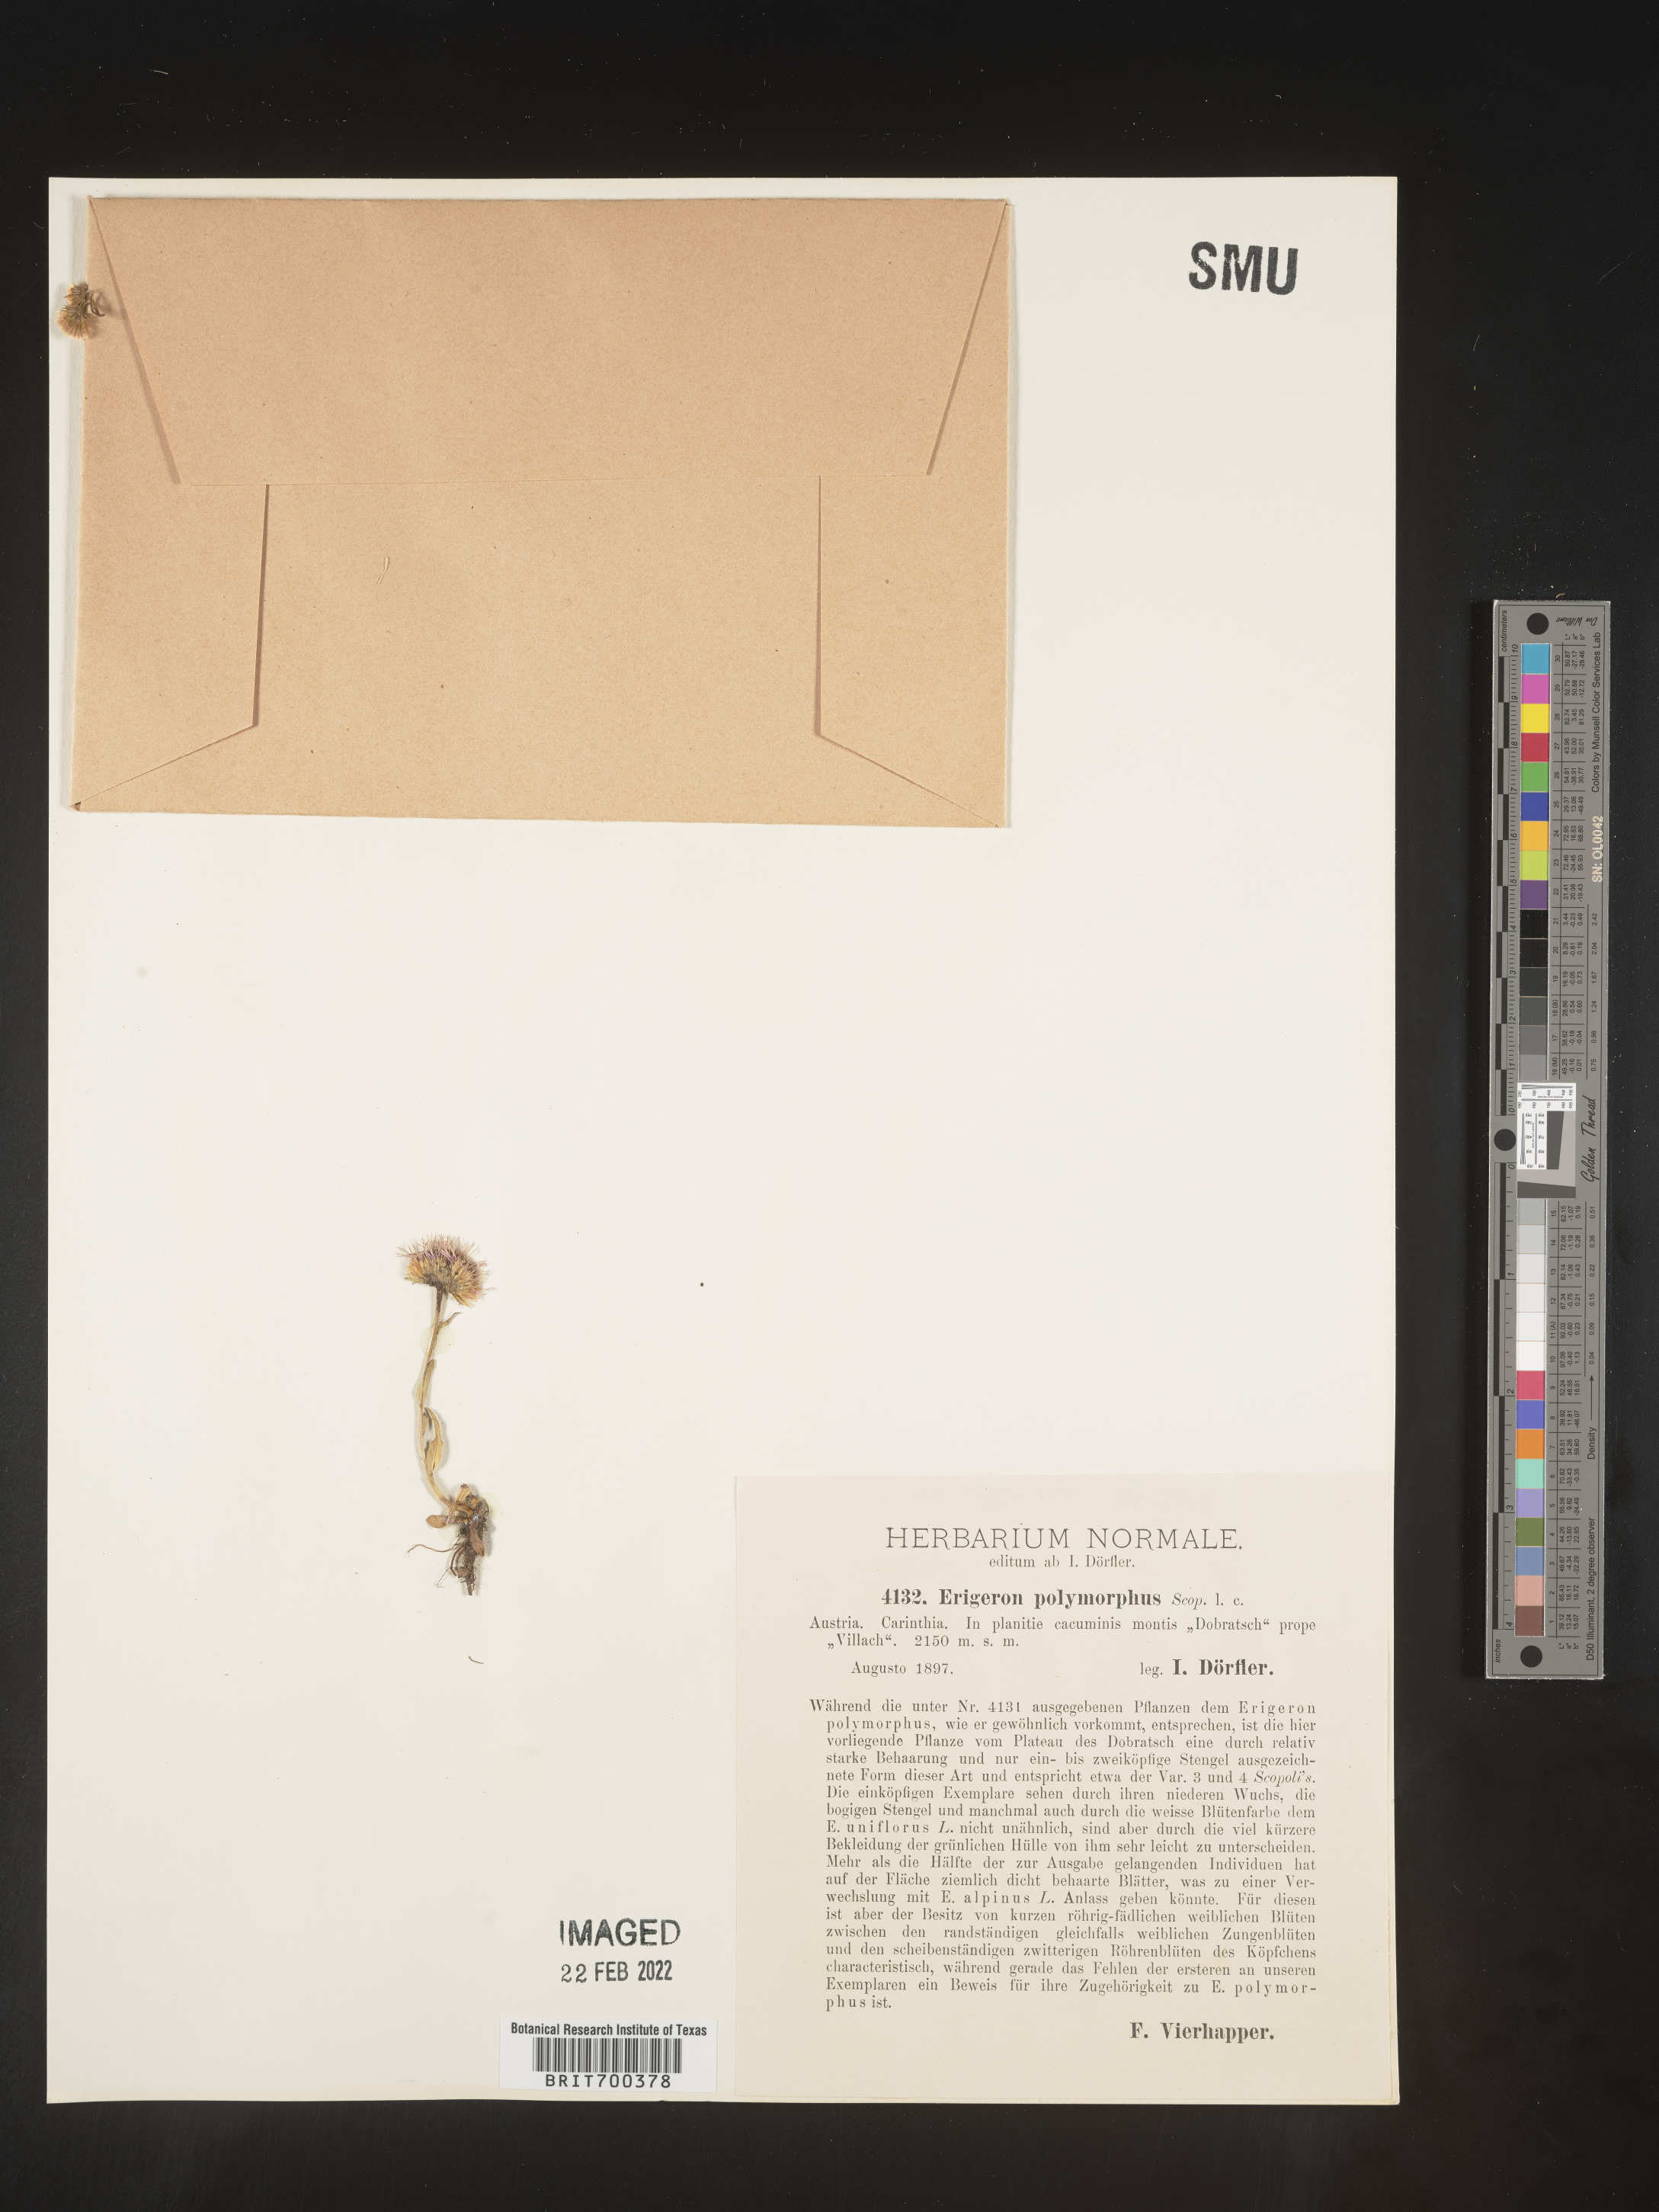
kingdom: Plantae
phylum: Tracheophyta
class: Magnoliopsida
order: Asterales
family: Asteraceae
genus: Erigeron
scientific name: Erigeron
